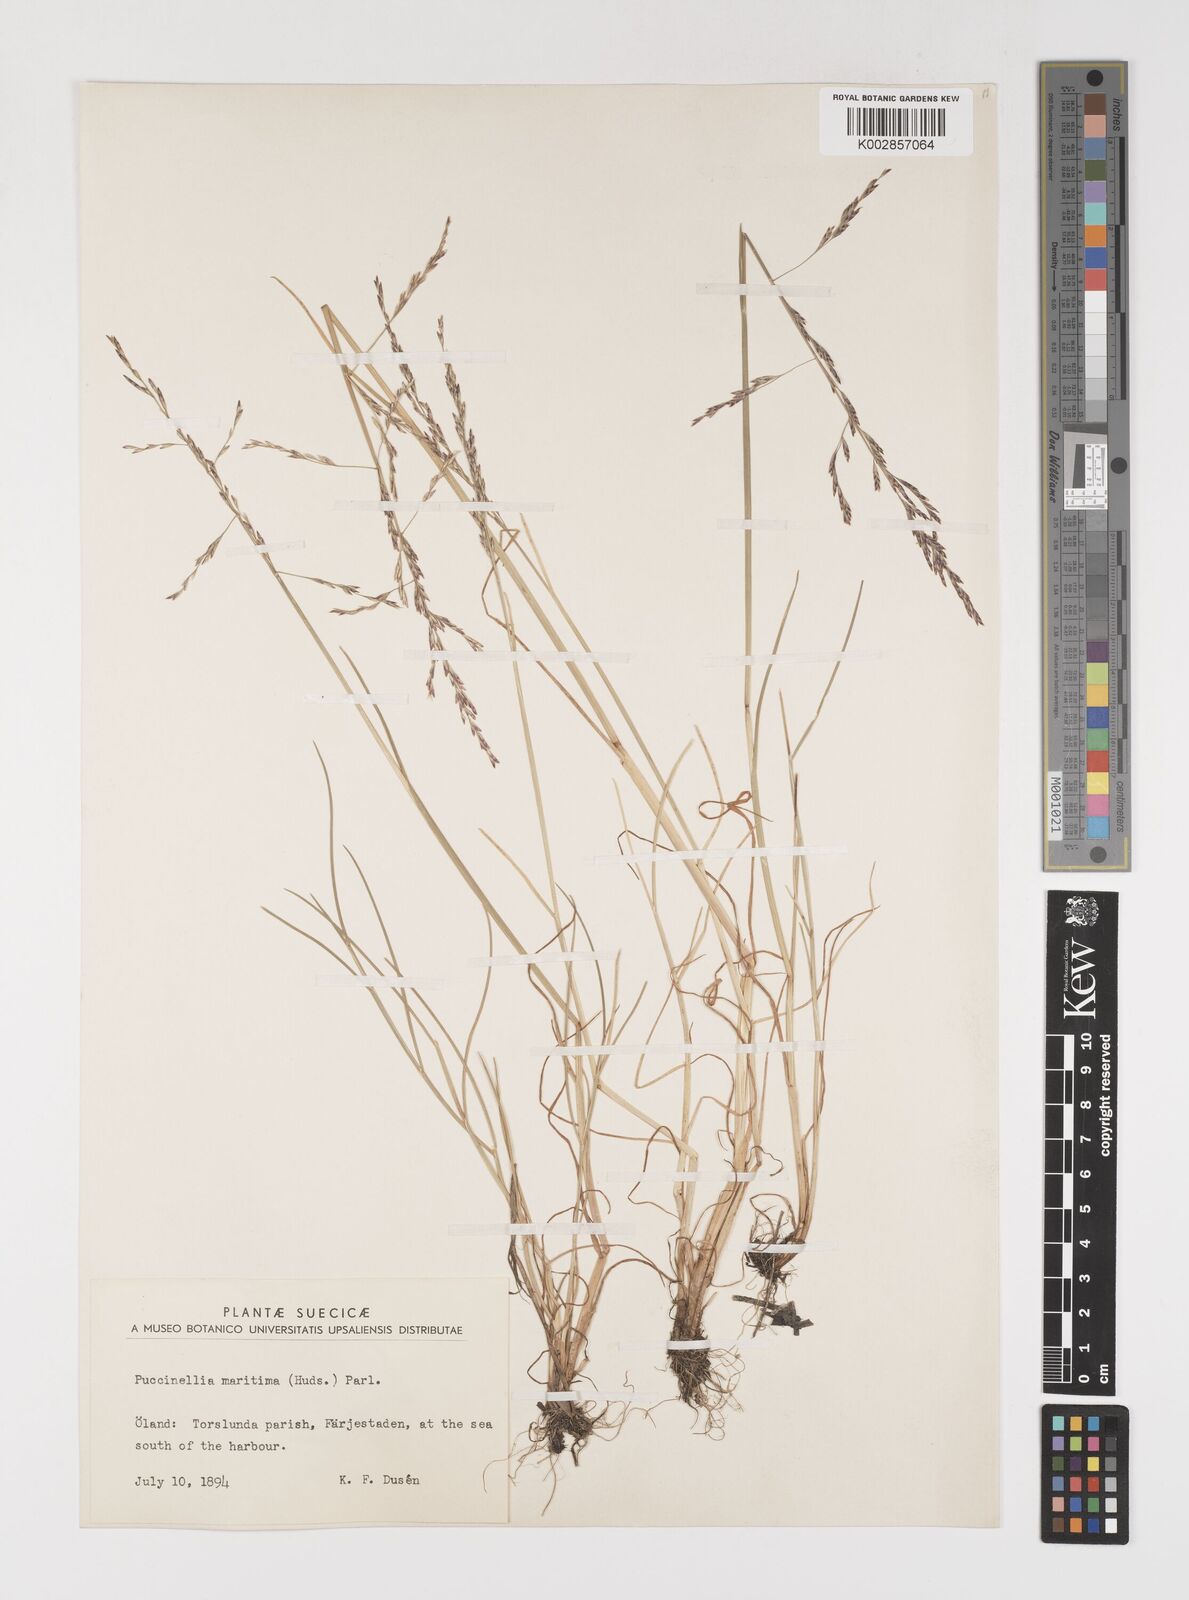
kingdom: Plantae
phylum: Tracheophyta
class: Liliopsida
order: Poales
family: Poaceae
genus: Puccinellia
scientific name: Puccinellia maritima
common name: Common saltmarsh grass
